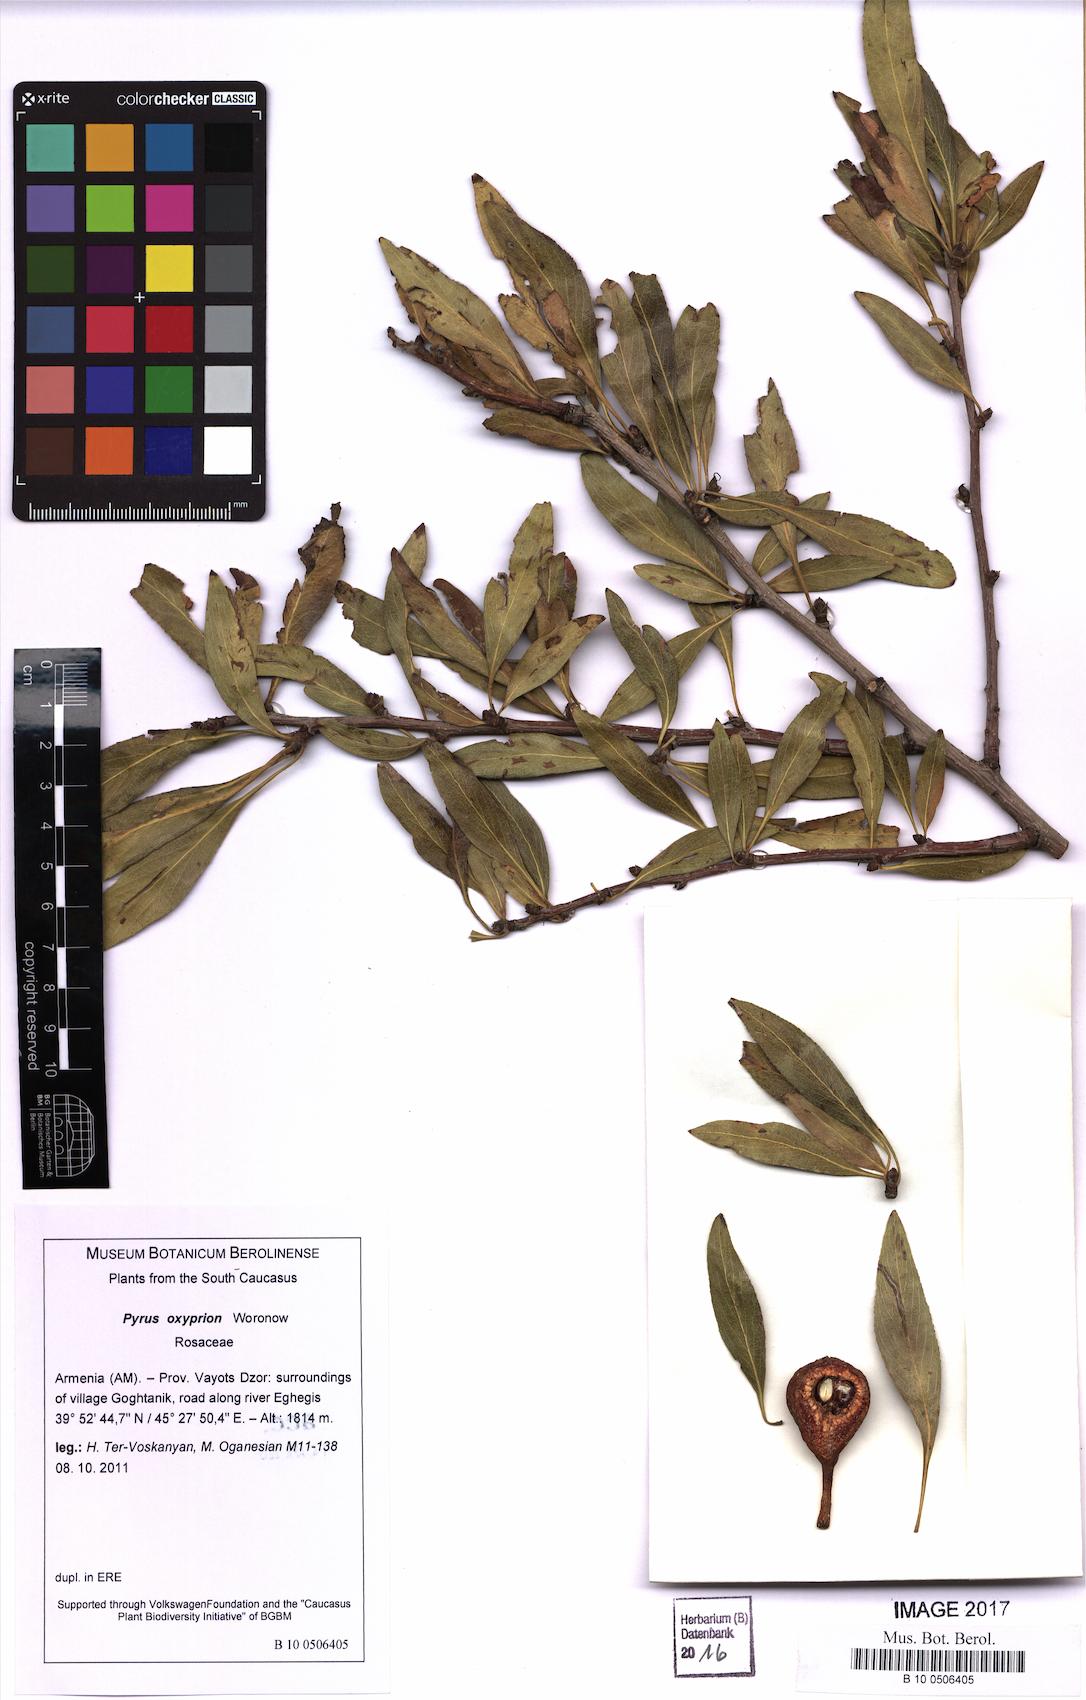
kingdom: Plantae
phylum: Tracheophyta
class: Magnoliopsida
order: Rosales
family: Rosaceae
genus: Pyrus
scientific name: Pyrus oxyprion
